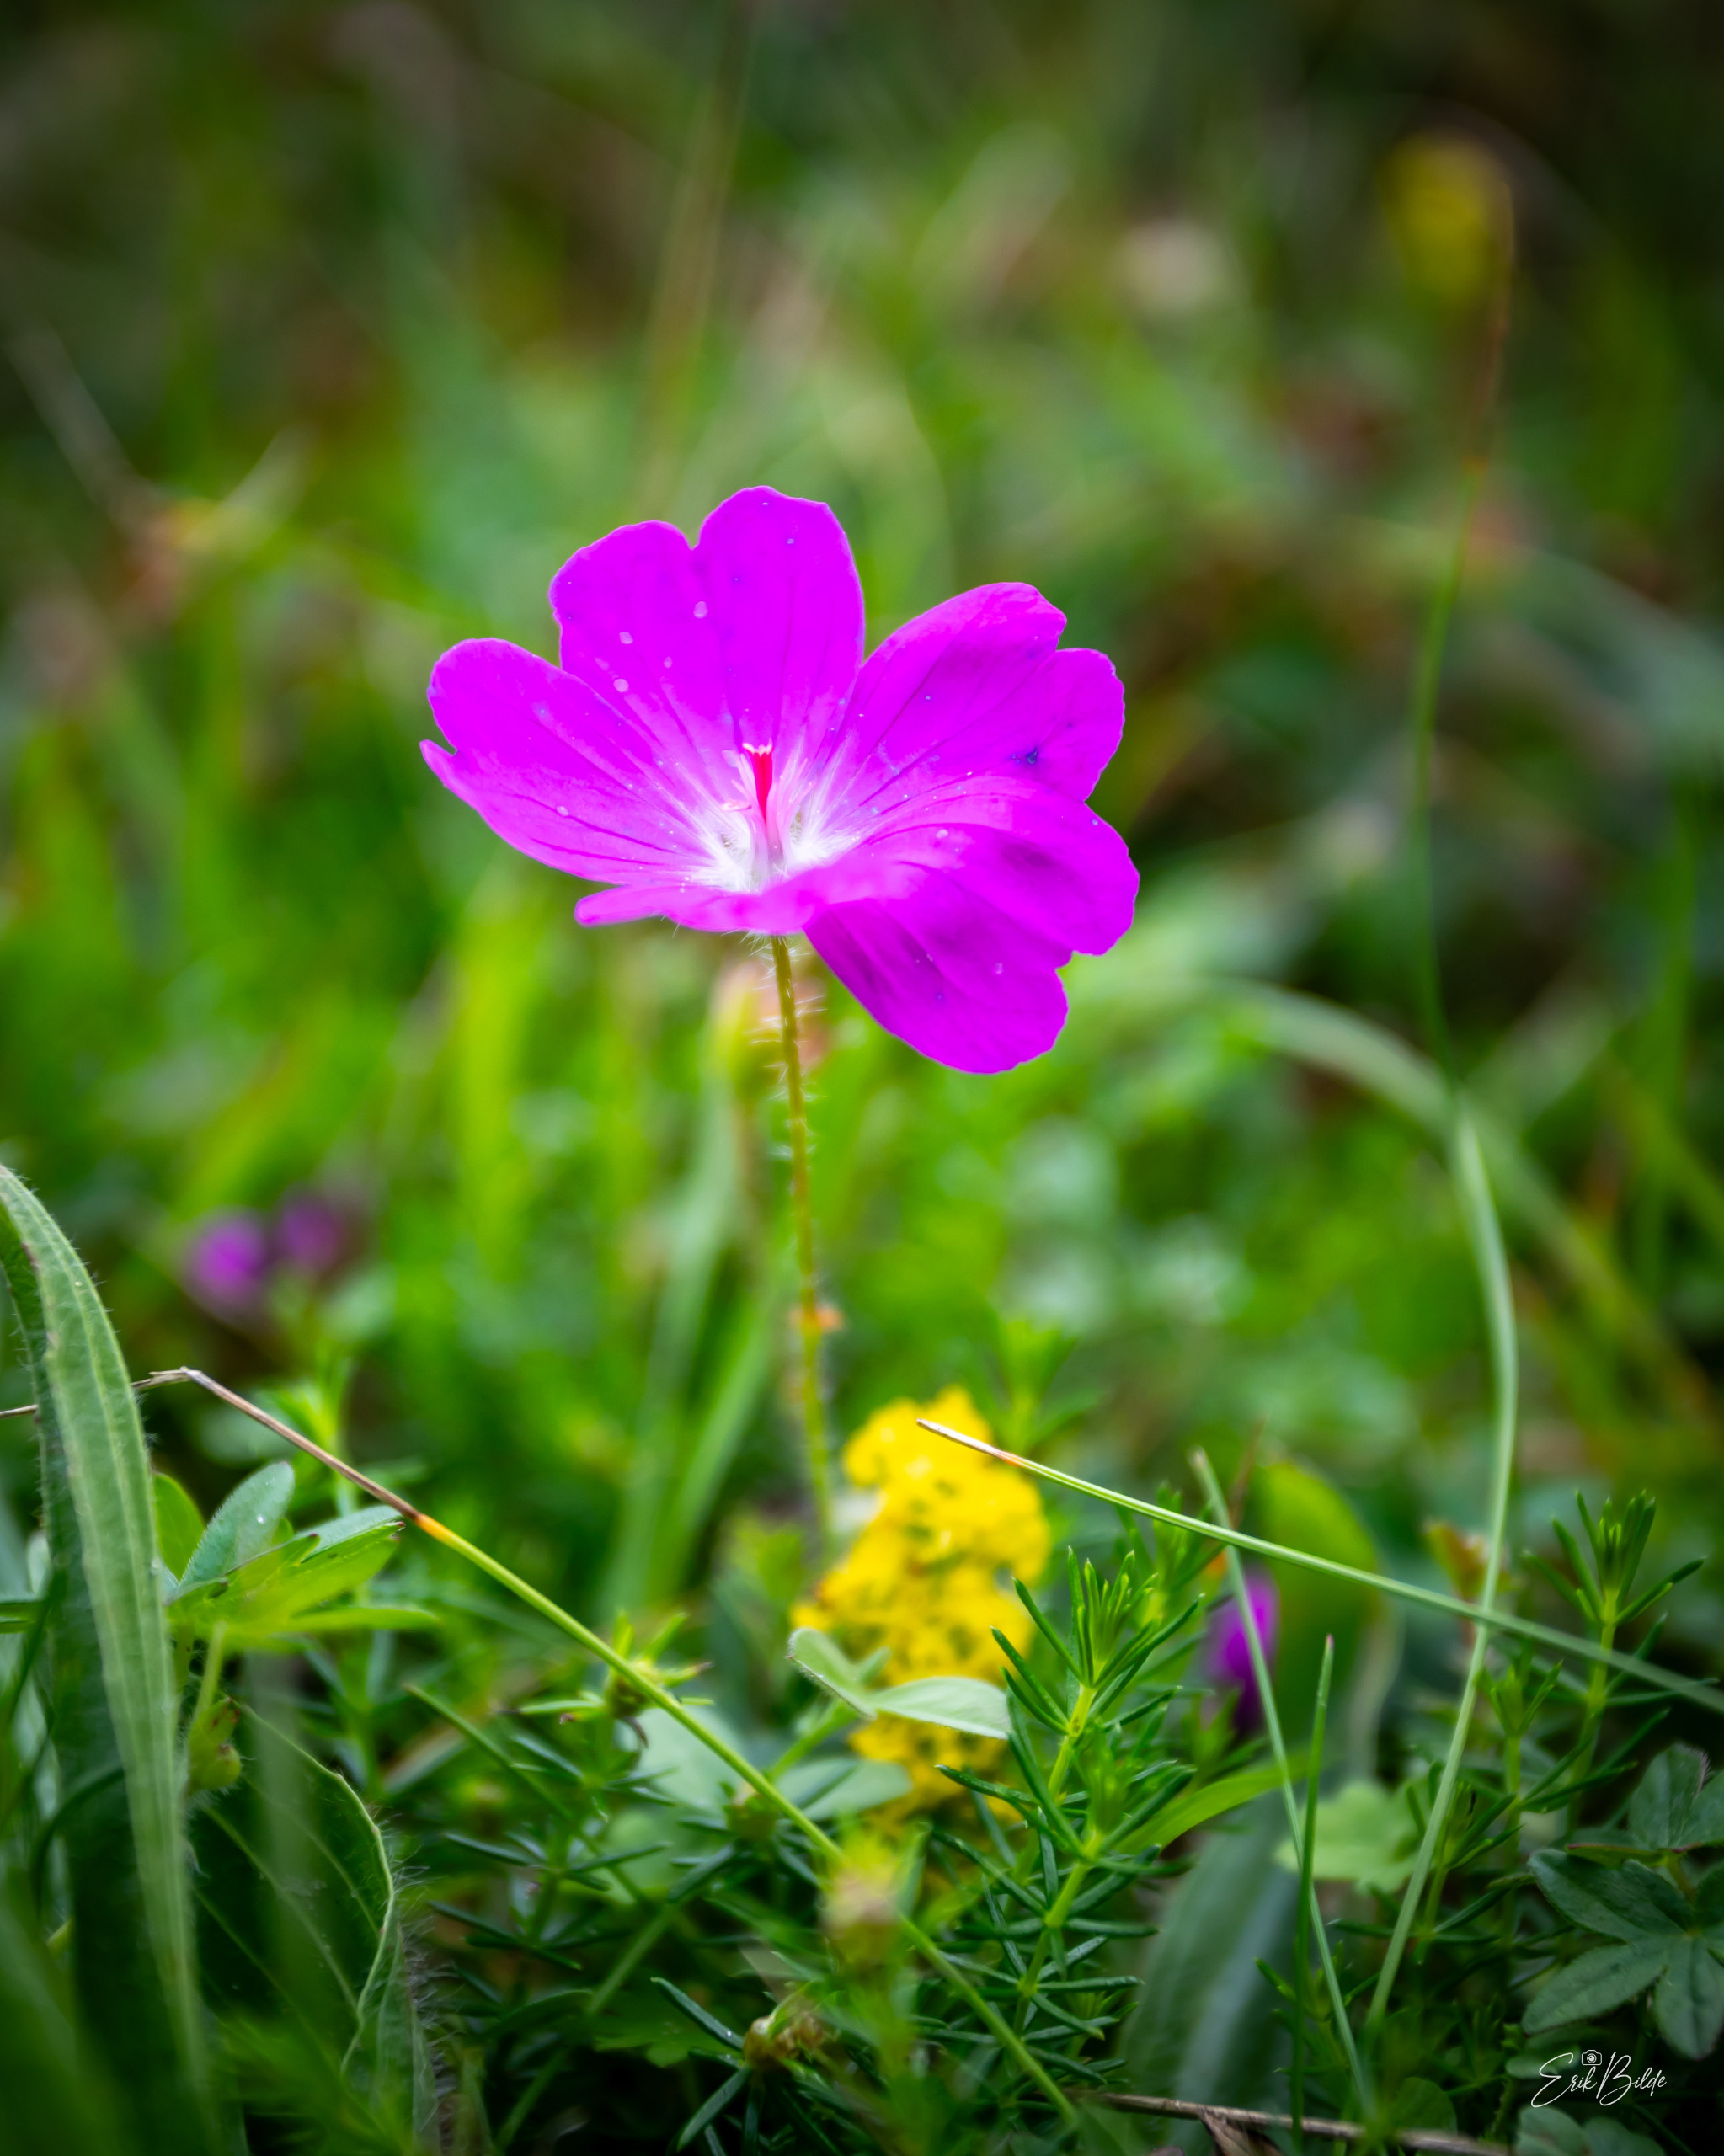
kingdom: Plantae
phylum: Tracheophyta
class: Magnoliopsida
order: Geraniales
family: Geraniaceae
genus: Geranium
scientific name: Geranium sanguineum
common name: Blodrød storkenæb
